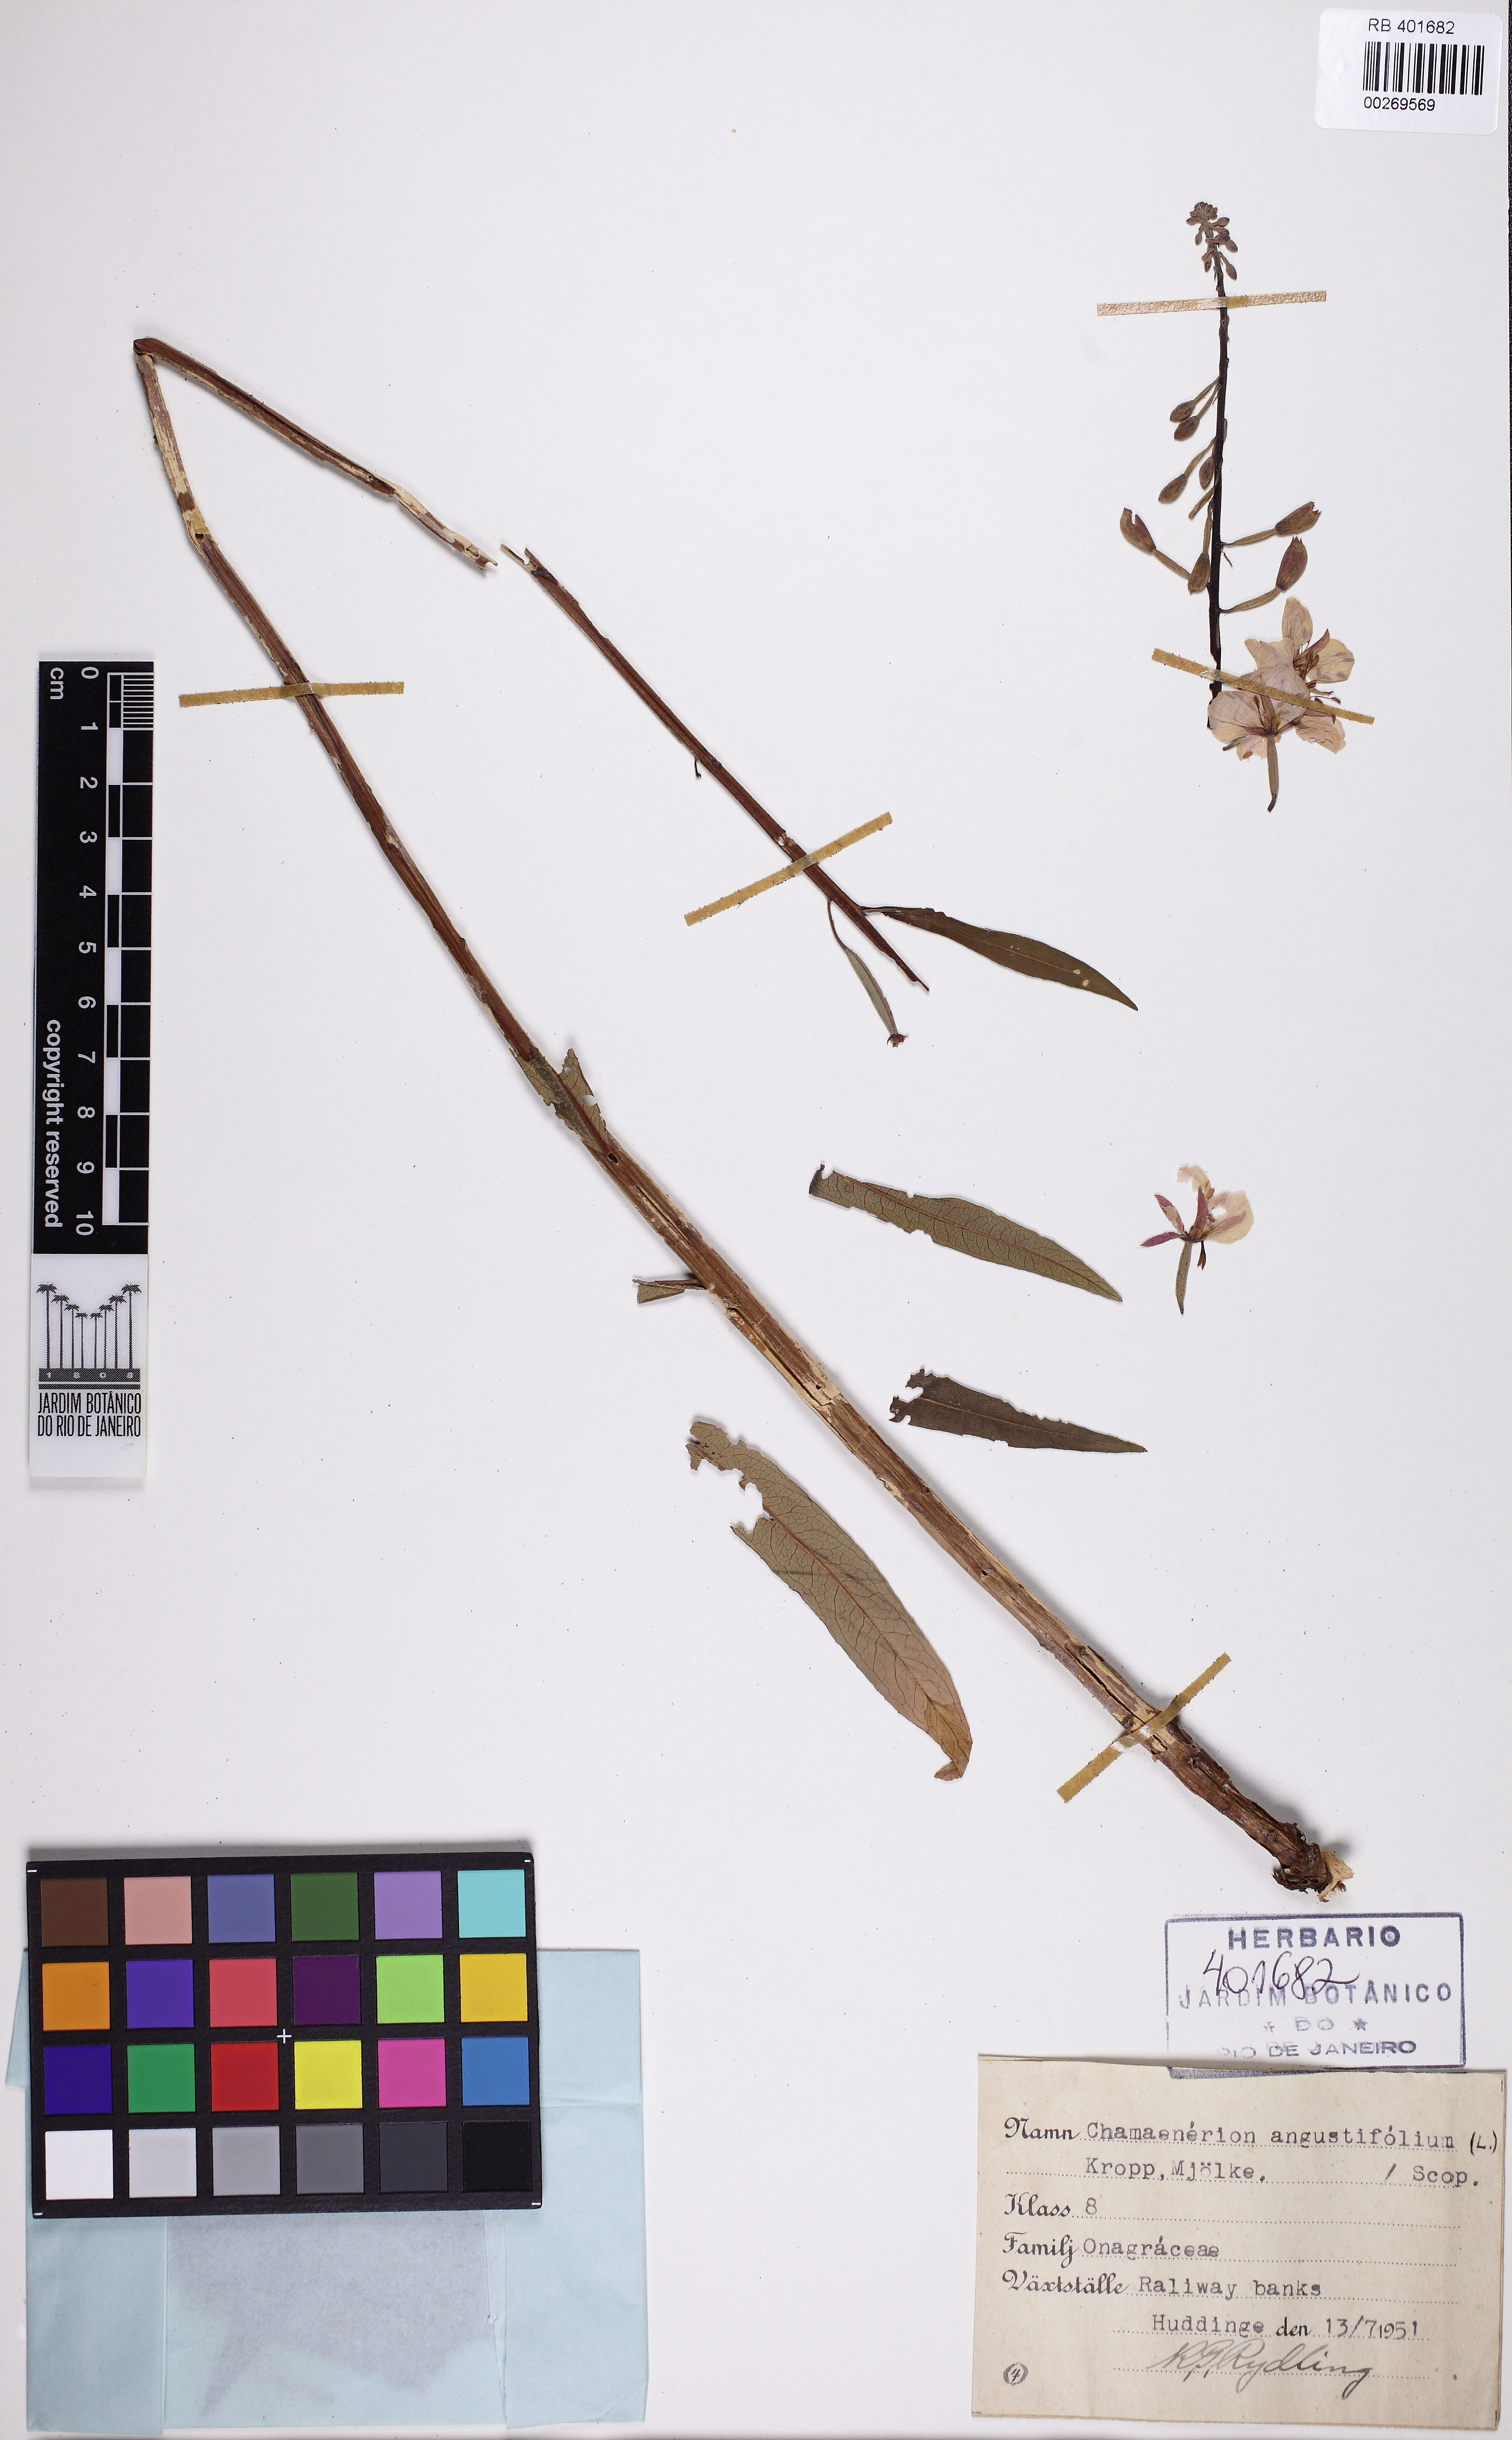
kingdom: Plantae
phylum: Tracheophyta
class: Magnoliopsida
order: Myrtales
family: Onagraceae
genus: Chamaenerion
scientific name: Chamaenerion angustifolium
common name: Fireweed
